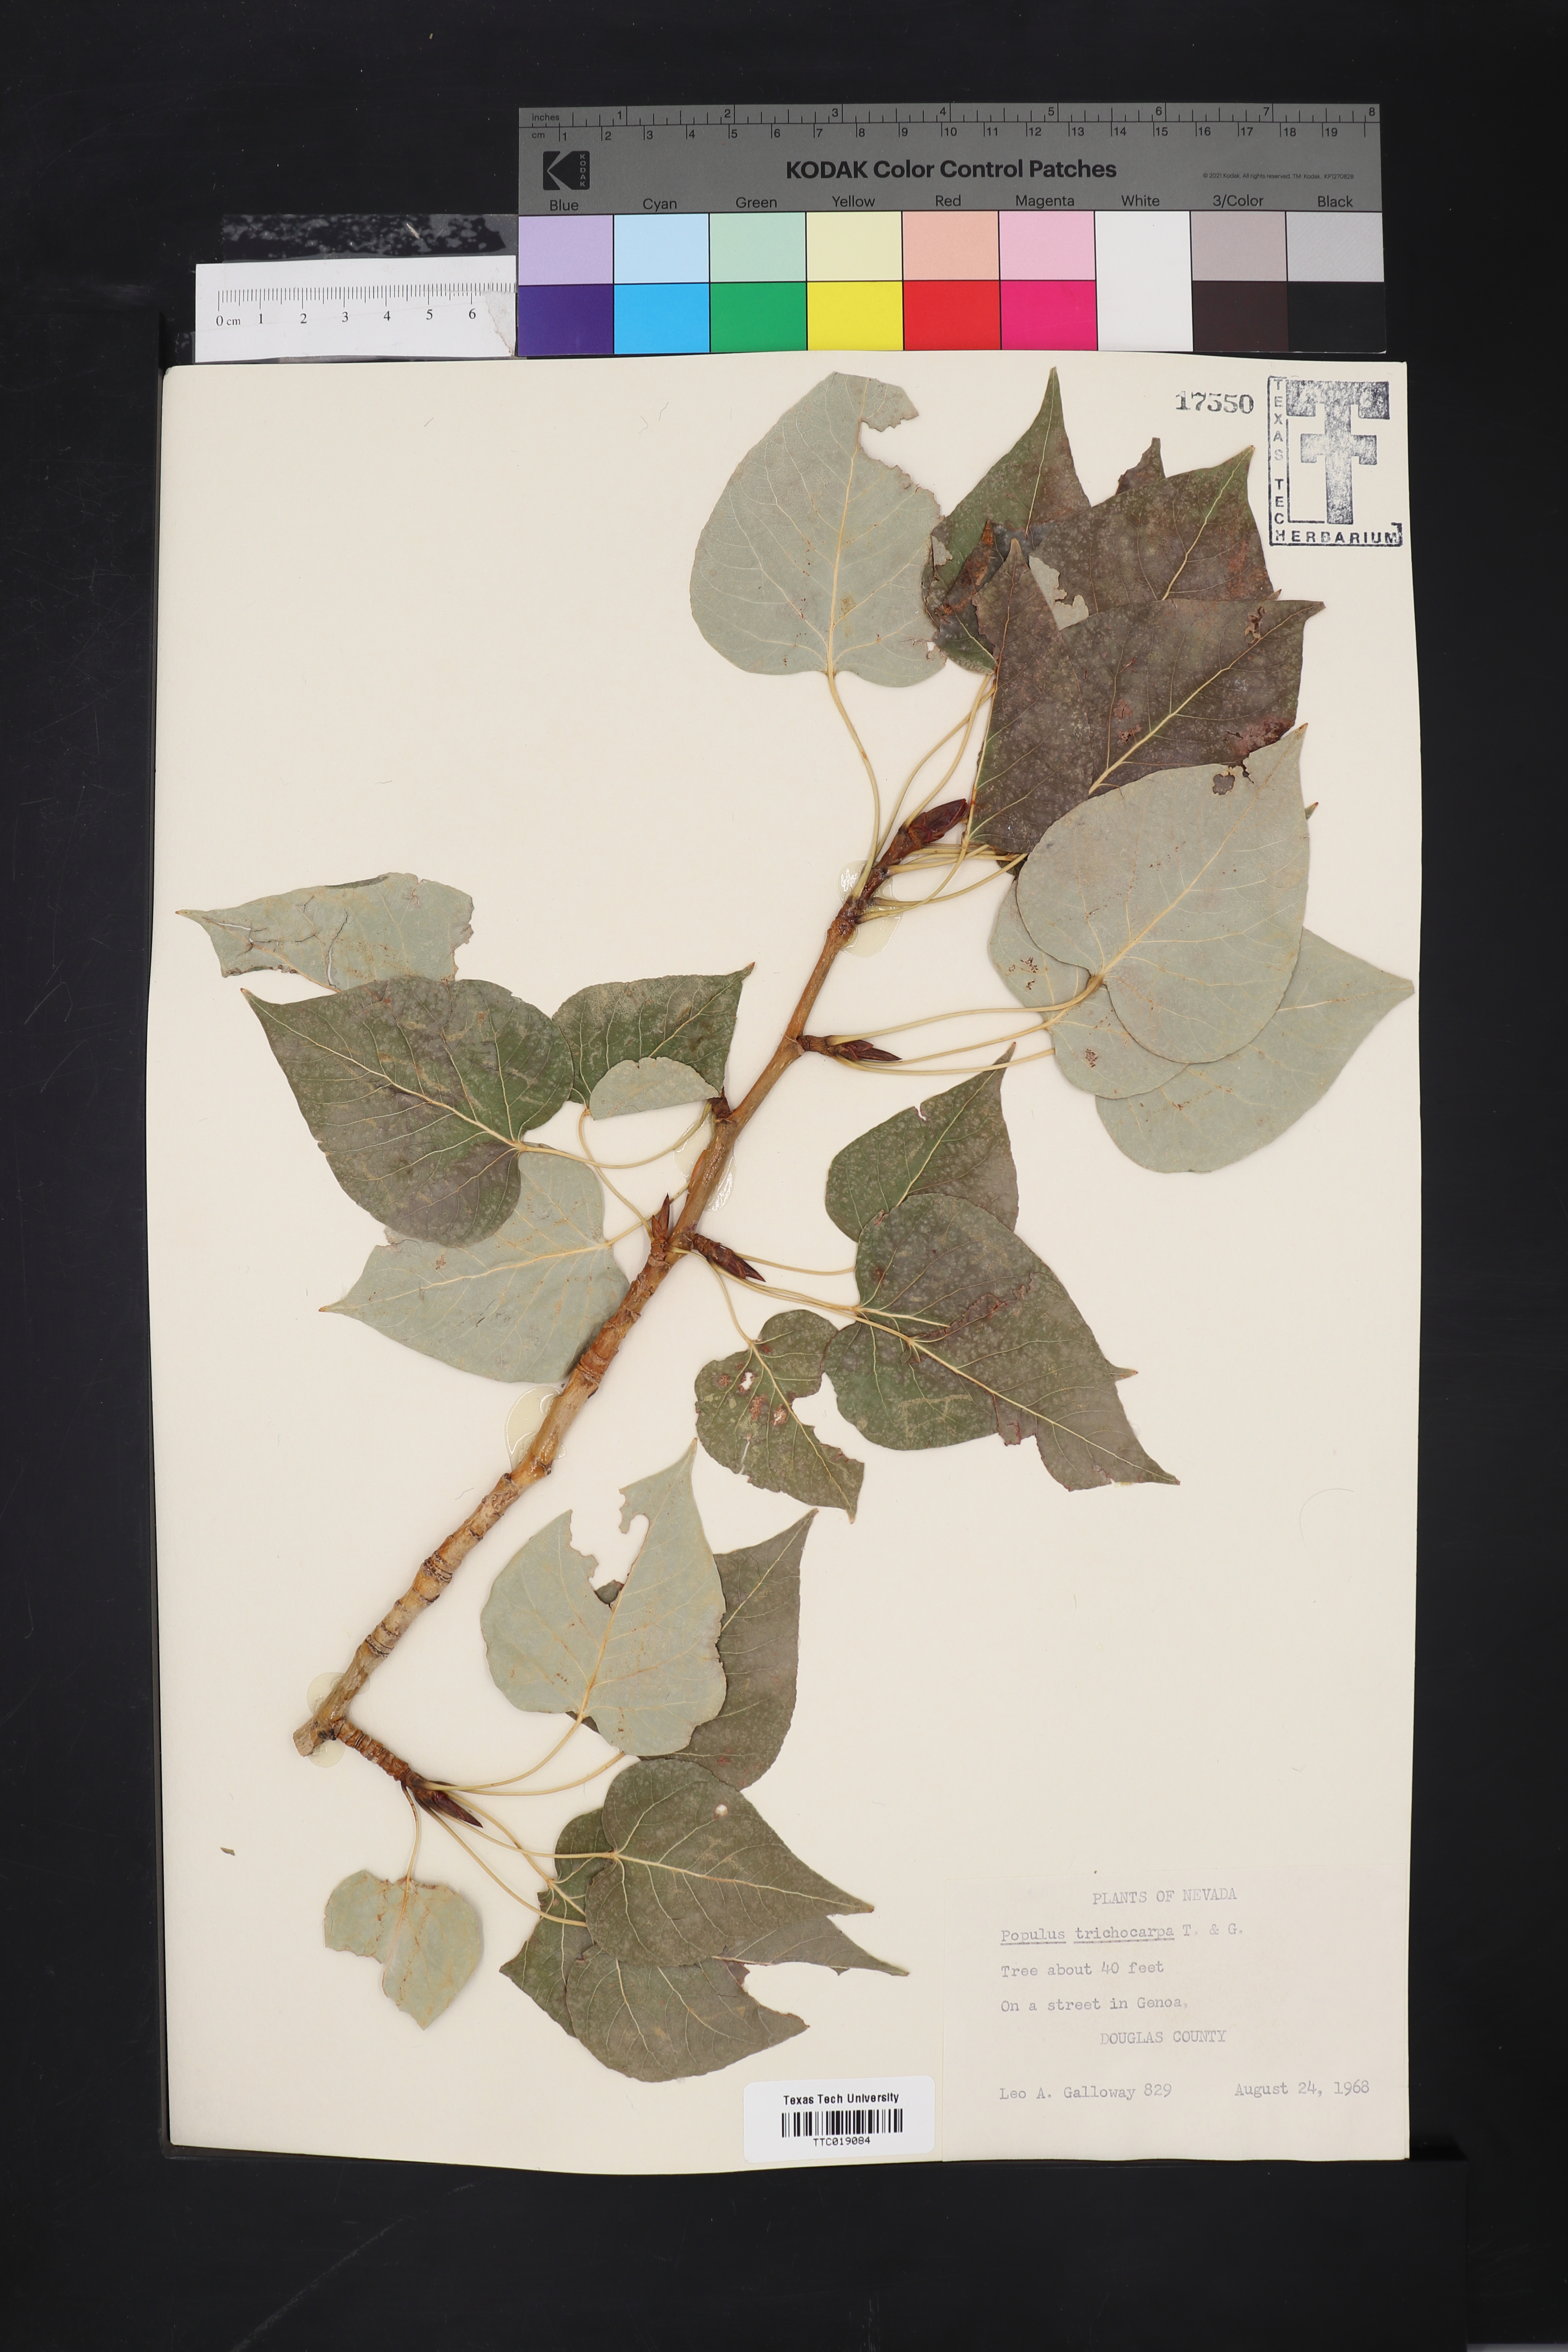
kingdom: Plantae
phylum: Tracheophyta
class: Magnoliopsida
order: Malpighiales
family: Salicaceae
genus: Populus
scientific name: Populus trichocarpa
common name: Black cottonwood
